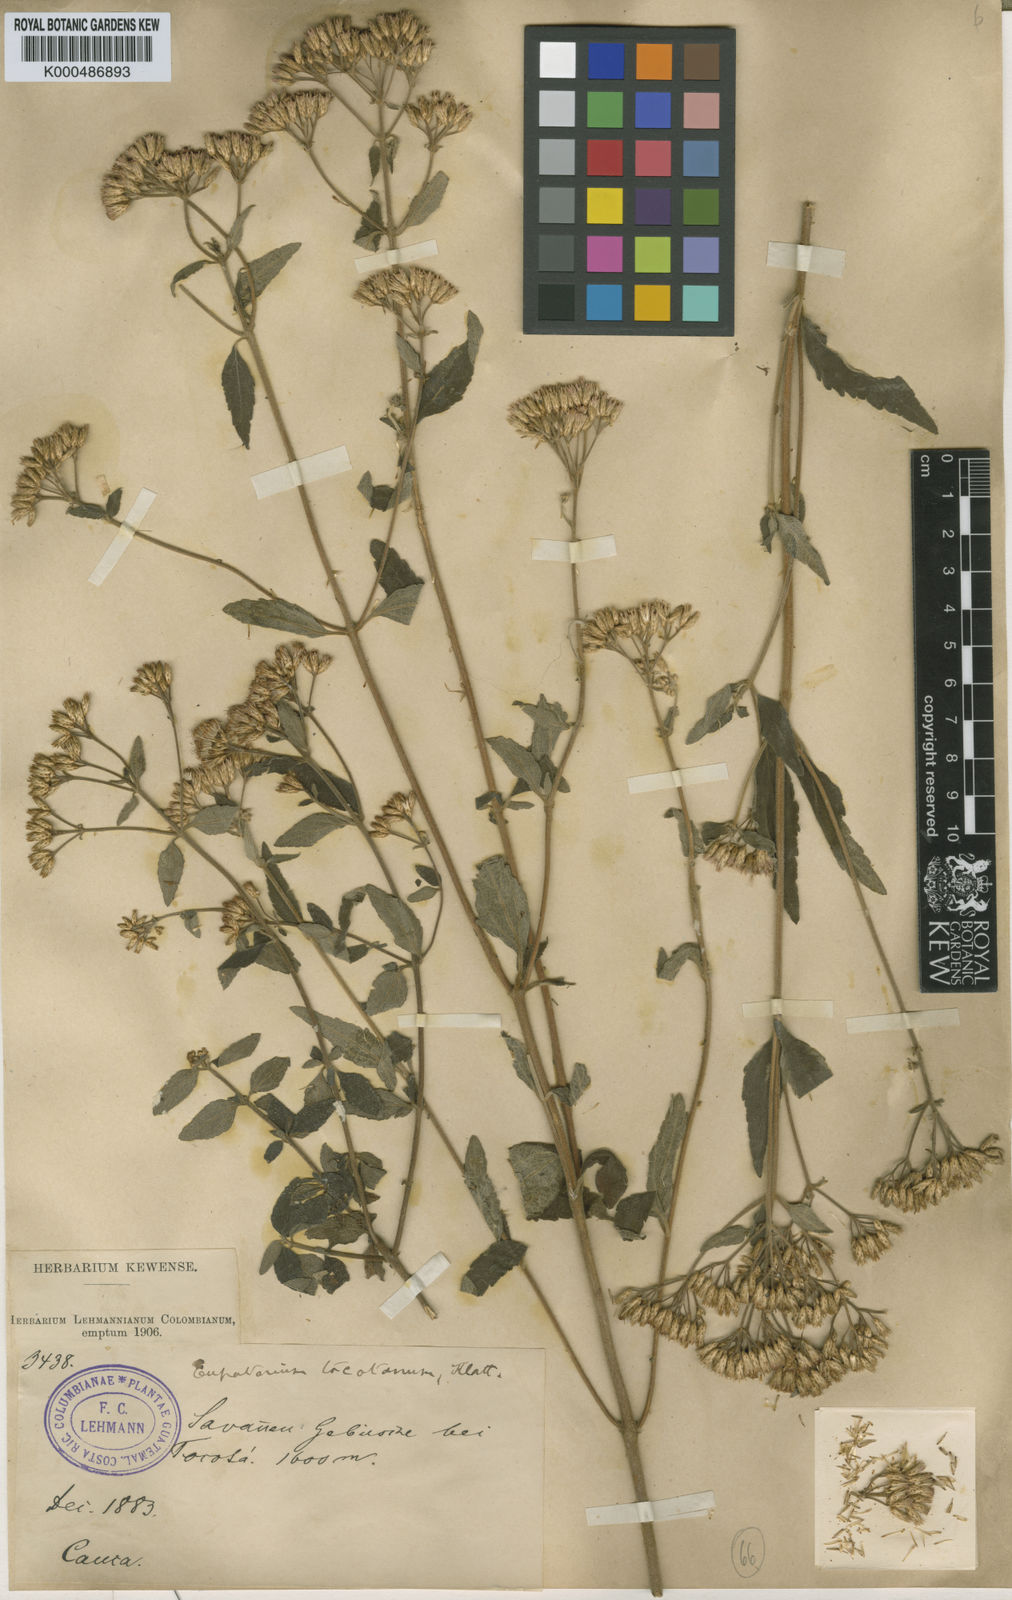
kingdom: Plantae
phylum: Tracheophyta
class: Magnoliopsida
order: Asterales
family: Asteraceae
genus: Chromolaena
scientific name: Chromolaena tacotana
